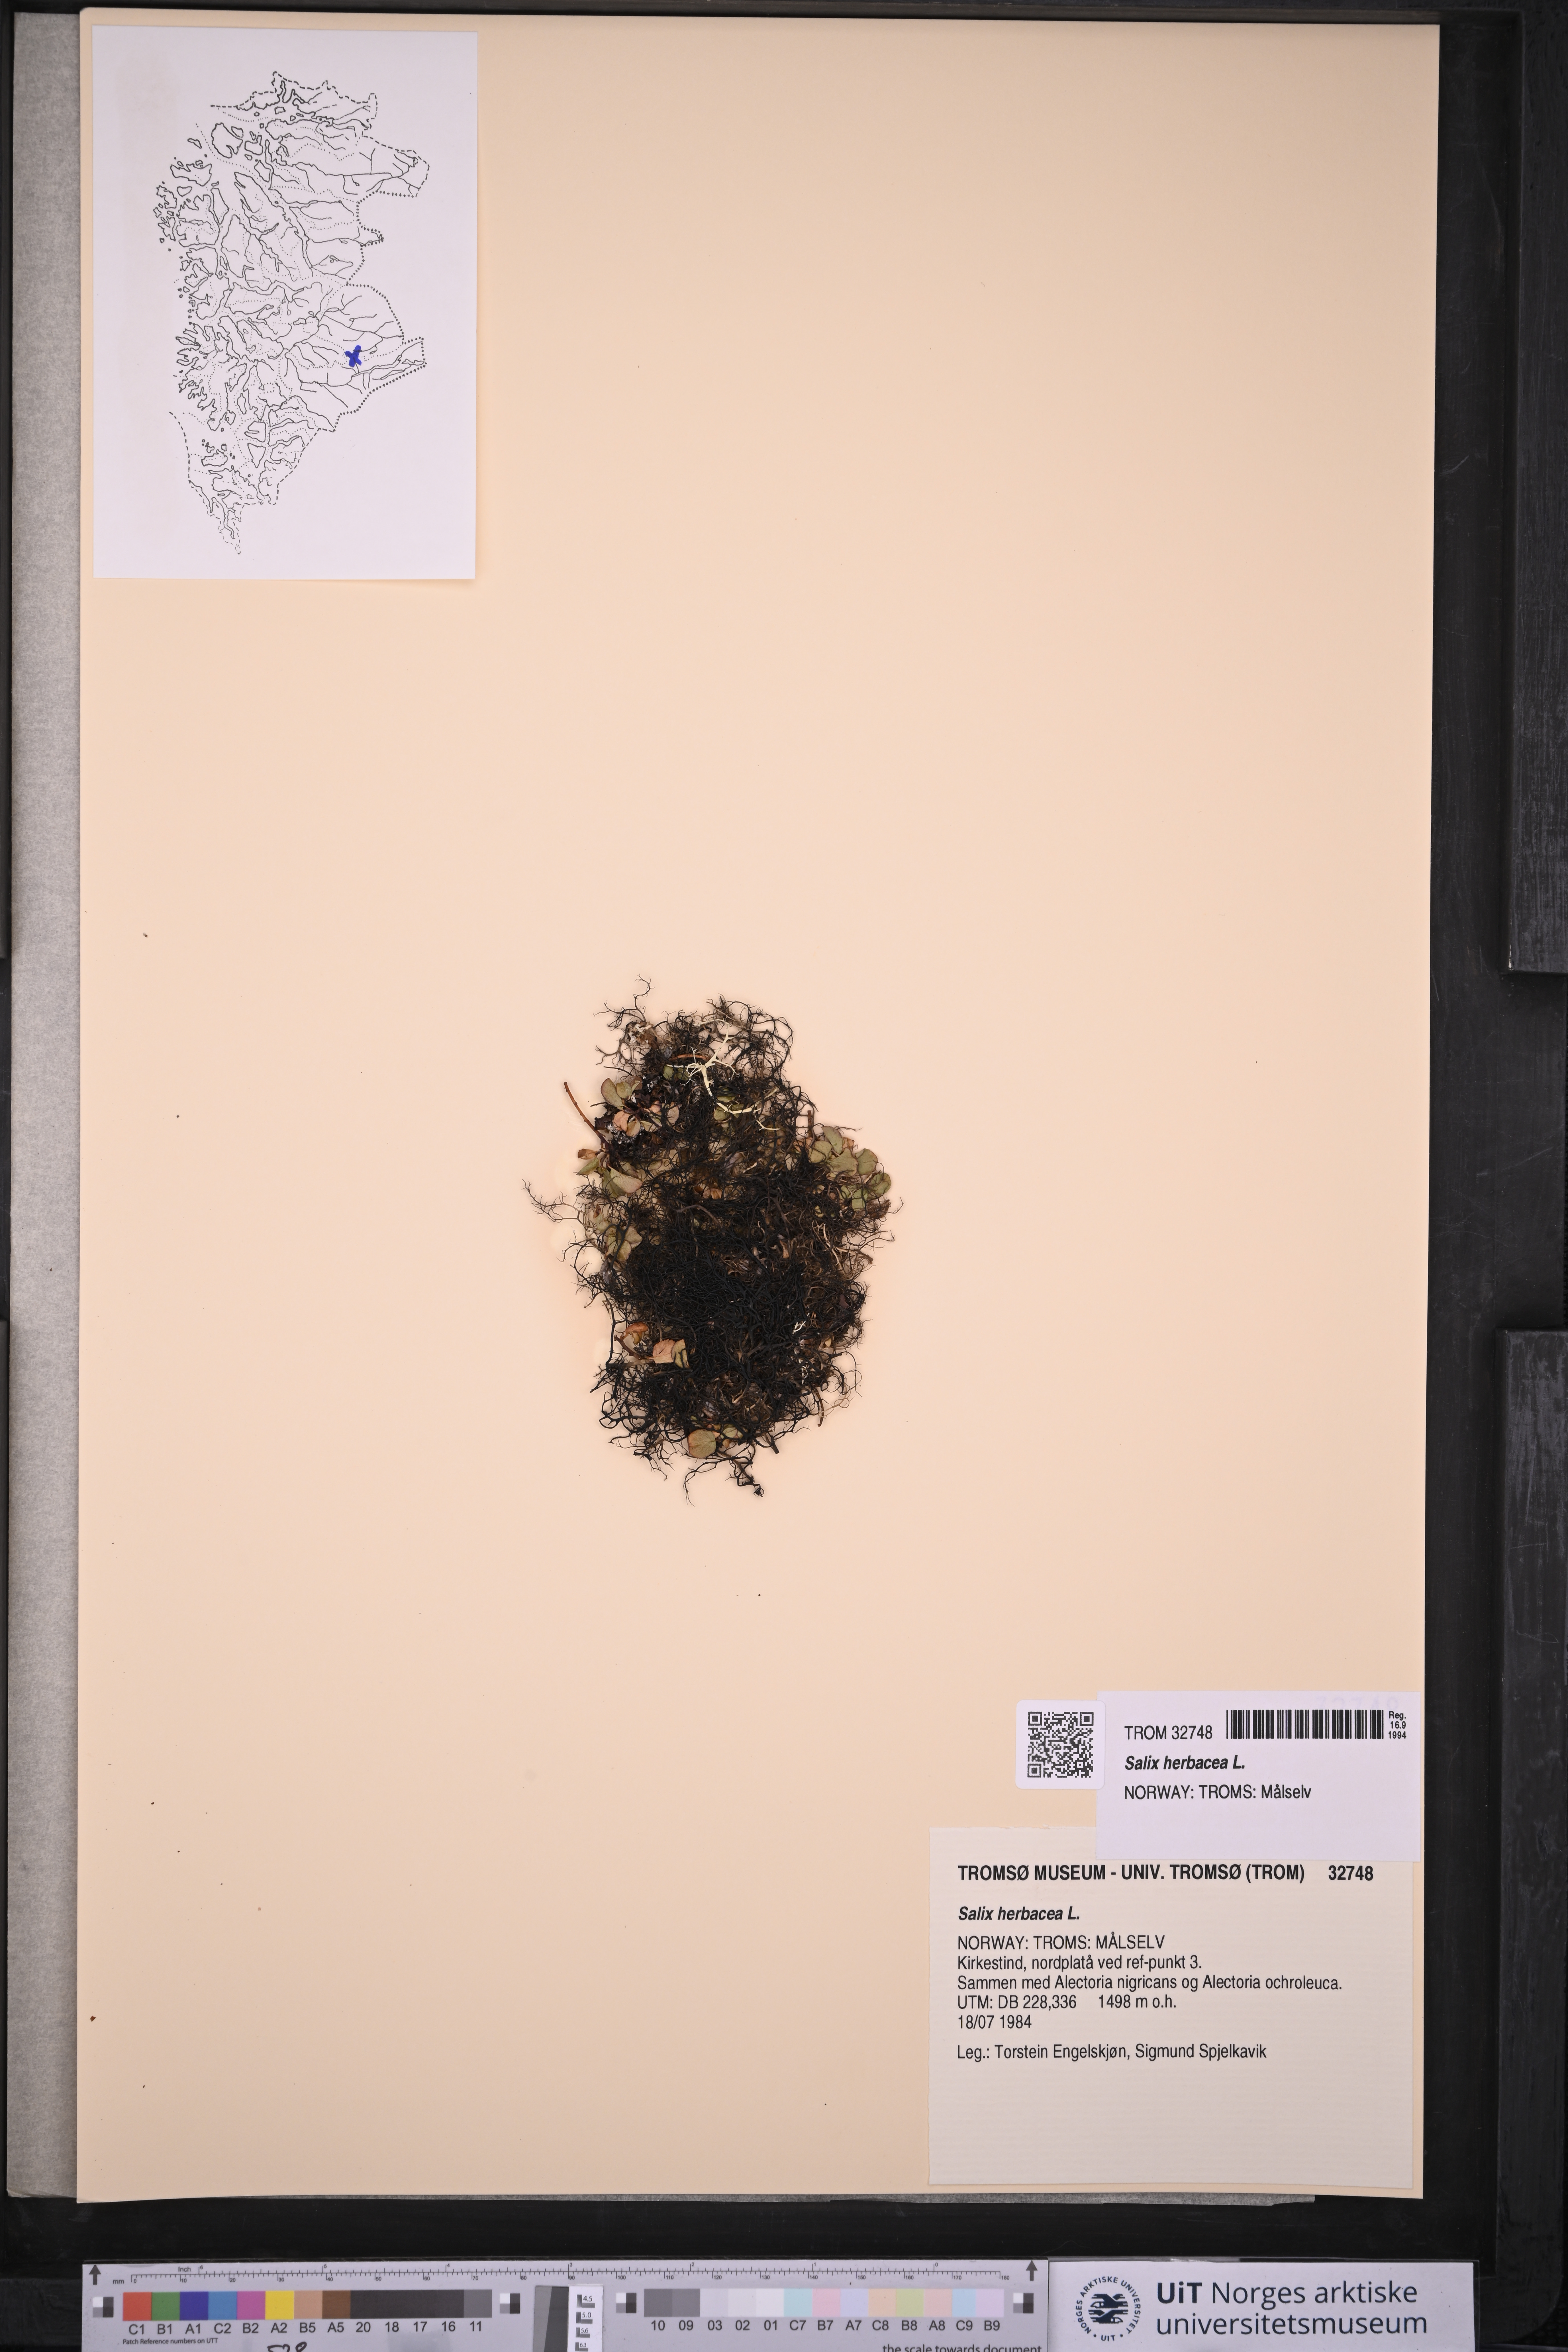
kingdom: Plantae
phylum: Tracheophyta
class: Magnoliopsida
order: Malpighiales
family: Salicaceae
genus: Salix
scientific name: Salix herbacea
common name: Dwarf willow
